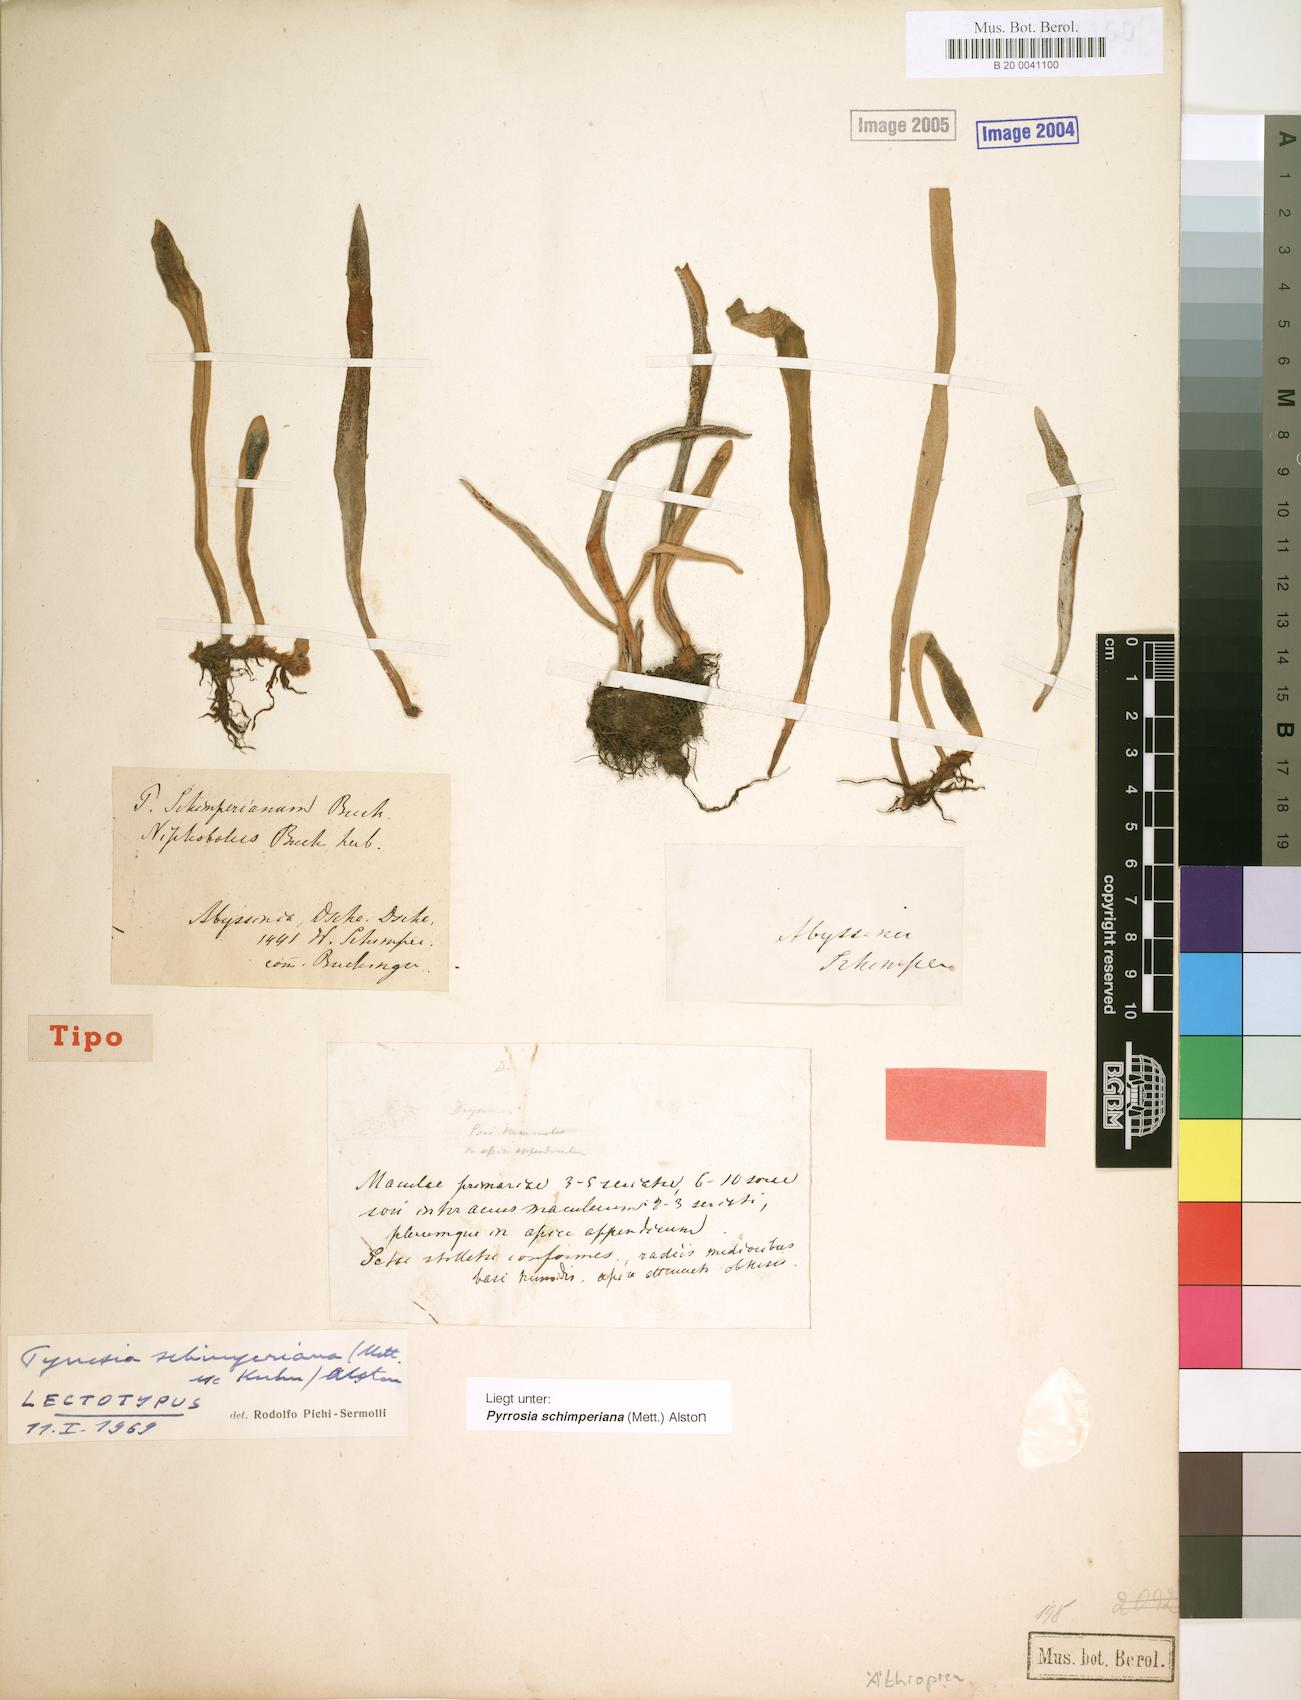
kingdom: Plantae
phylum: Tracheophyta
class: Polypodiopsida
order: Polypodiales
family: Polypodiaceae
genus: Hovenkampia
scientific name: Hovenkampia schimperiana
